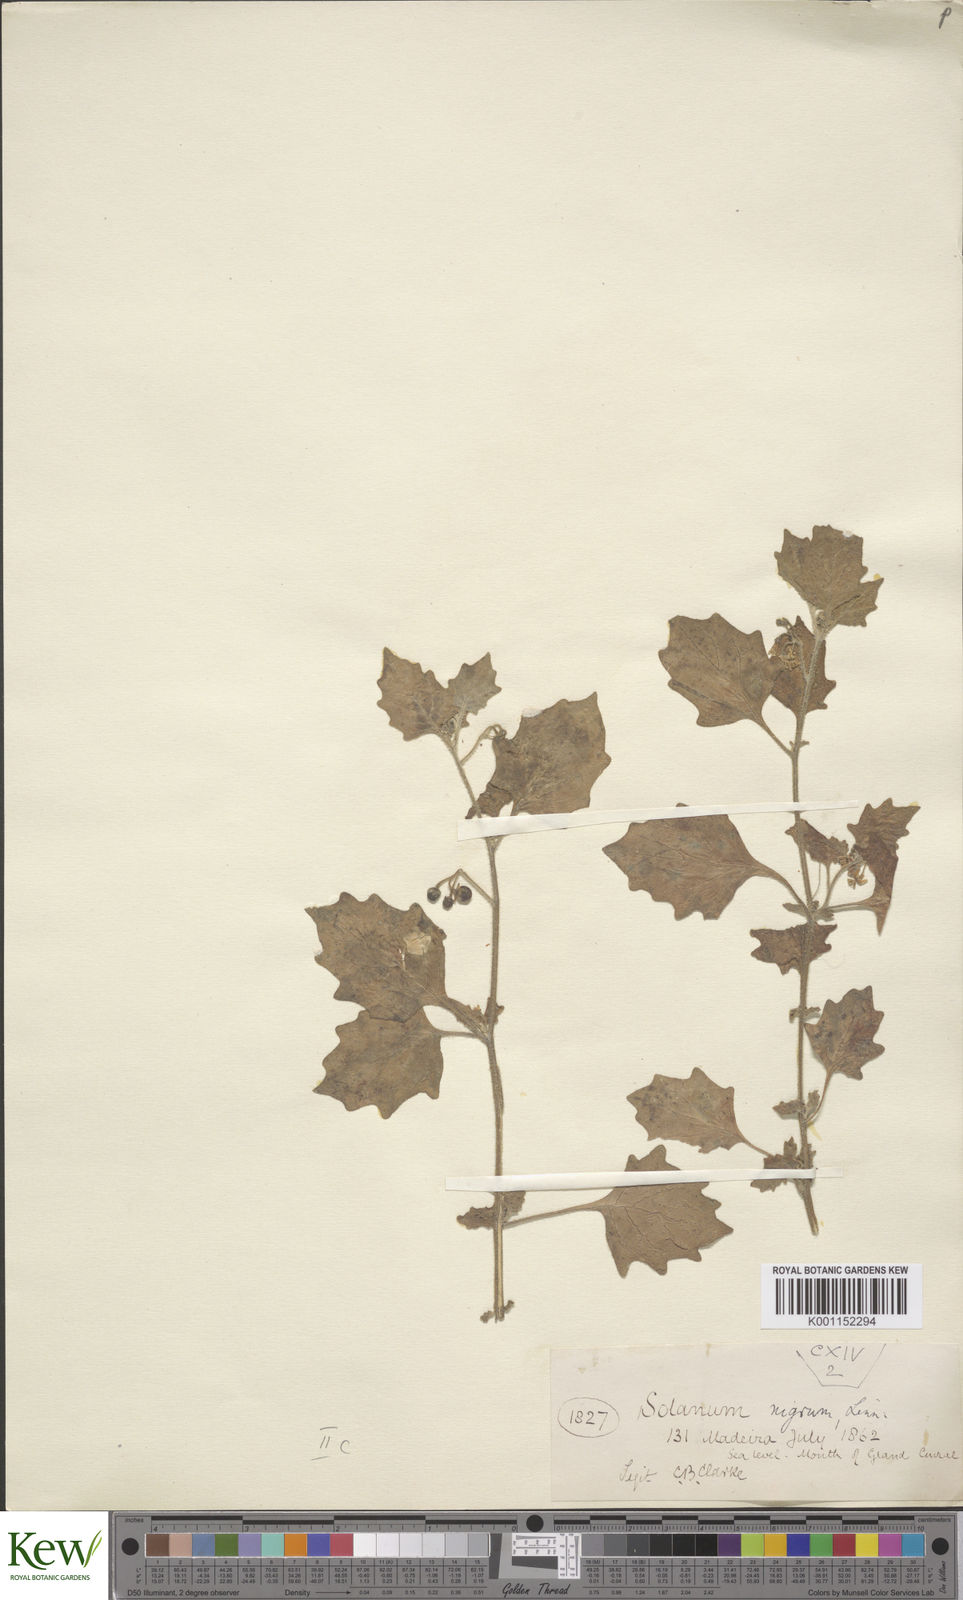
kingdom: Plantae
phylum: Tracheophyta
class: Magnoliopsida
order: Solanales
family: Solanaceae
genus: Solanum
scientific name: Solanum nigrum
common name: Black nightshade
